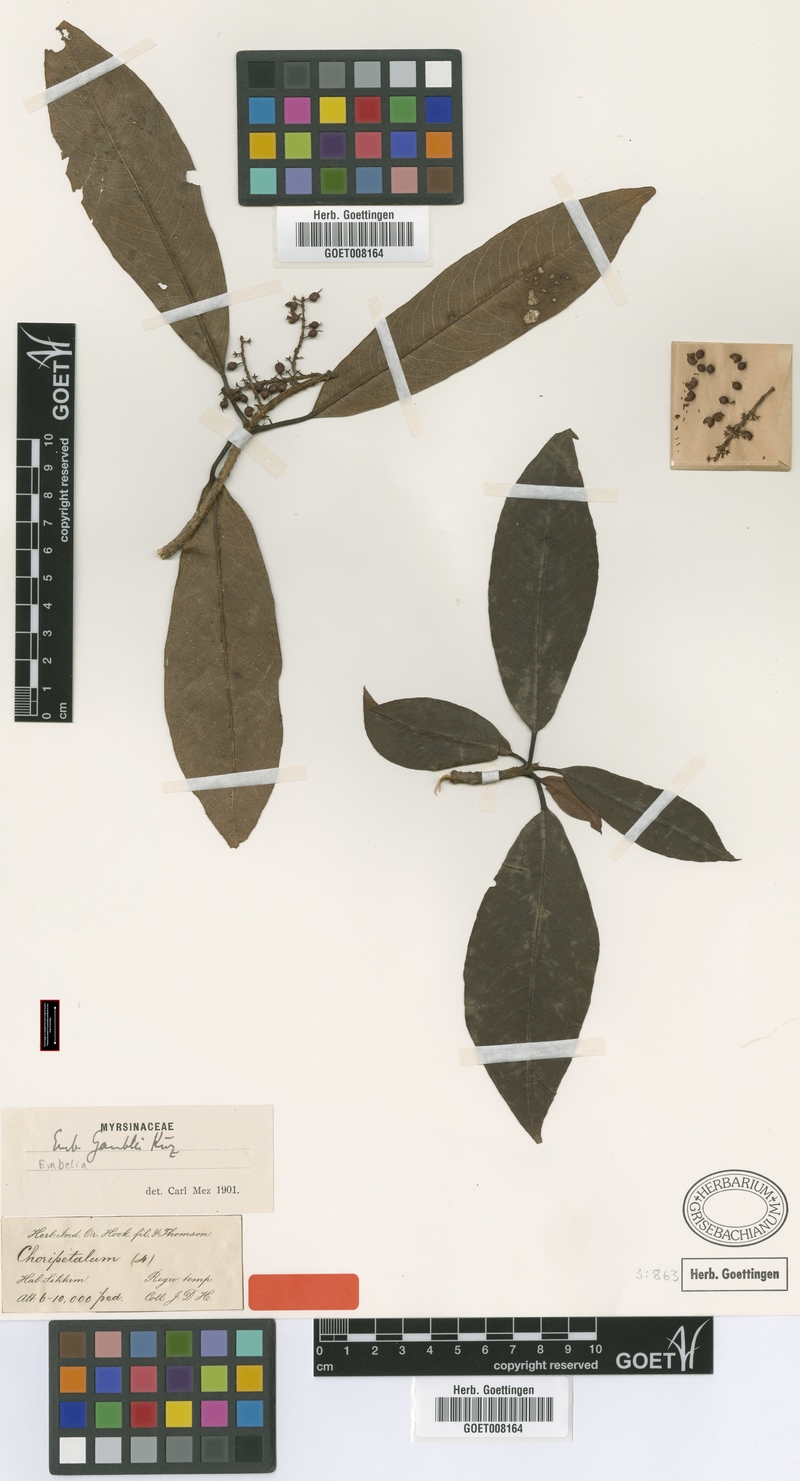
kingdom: Plantae
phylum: Tracheophyta
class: Magnoliopsida
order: Ericales
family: Primulaceae
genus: Embelia
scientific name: Embelia frondosa
